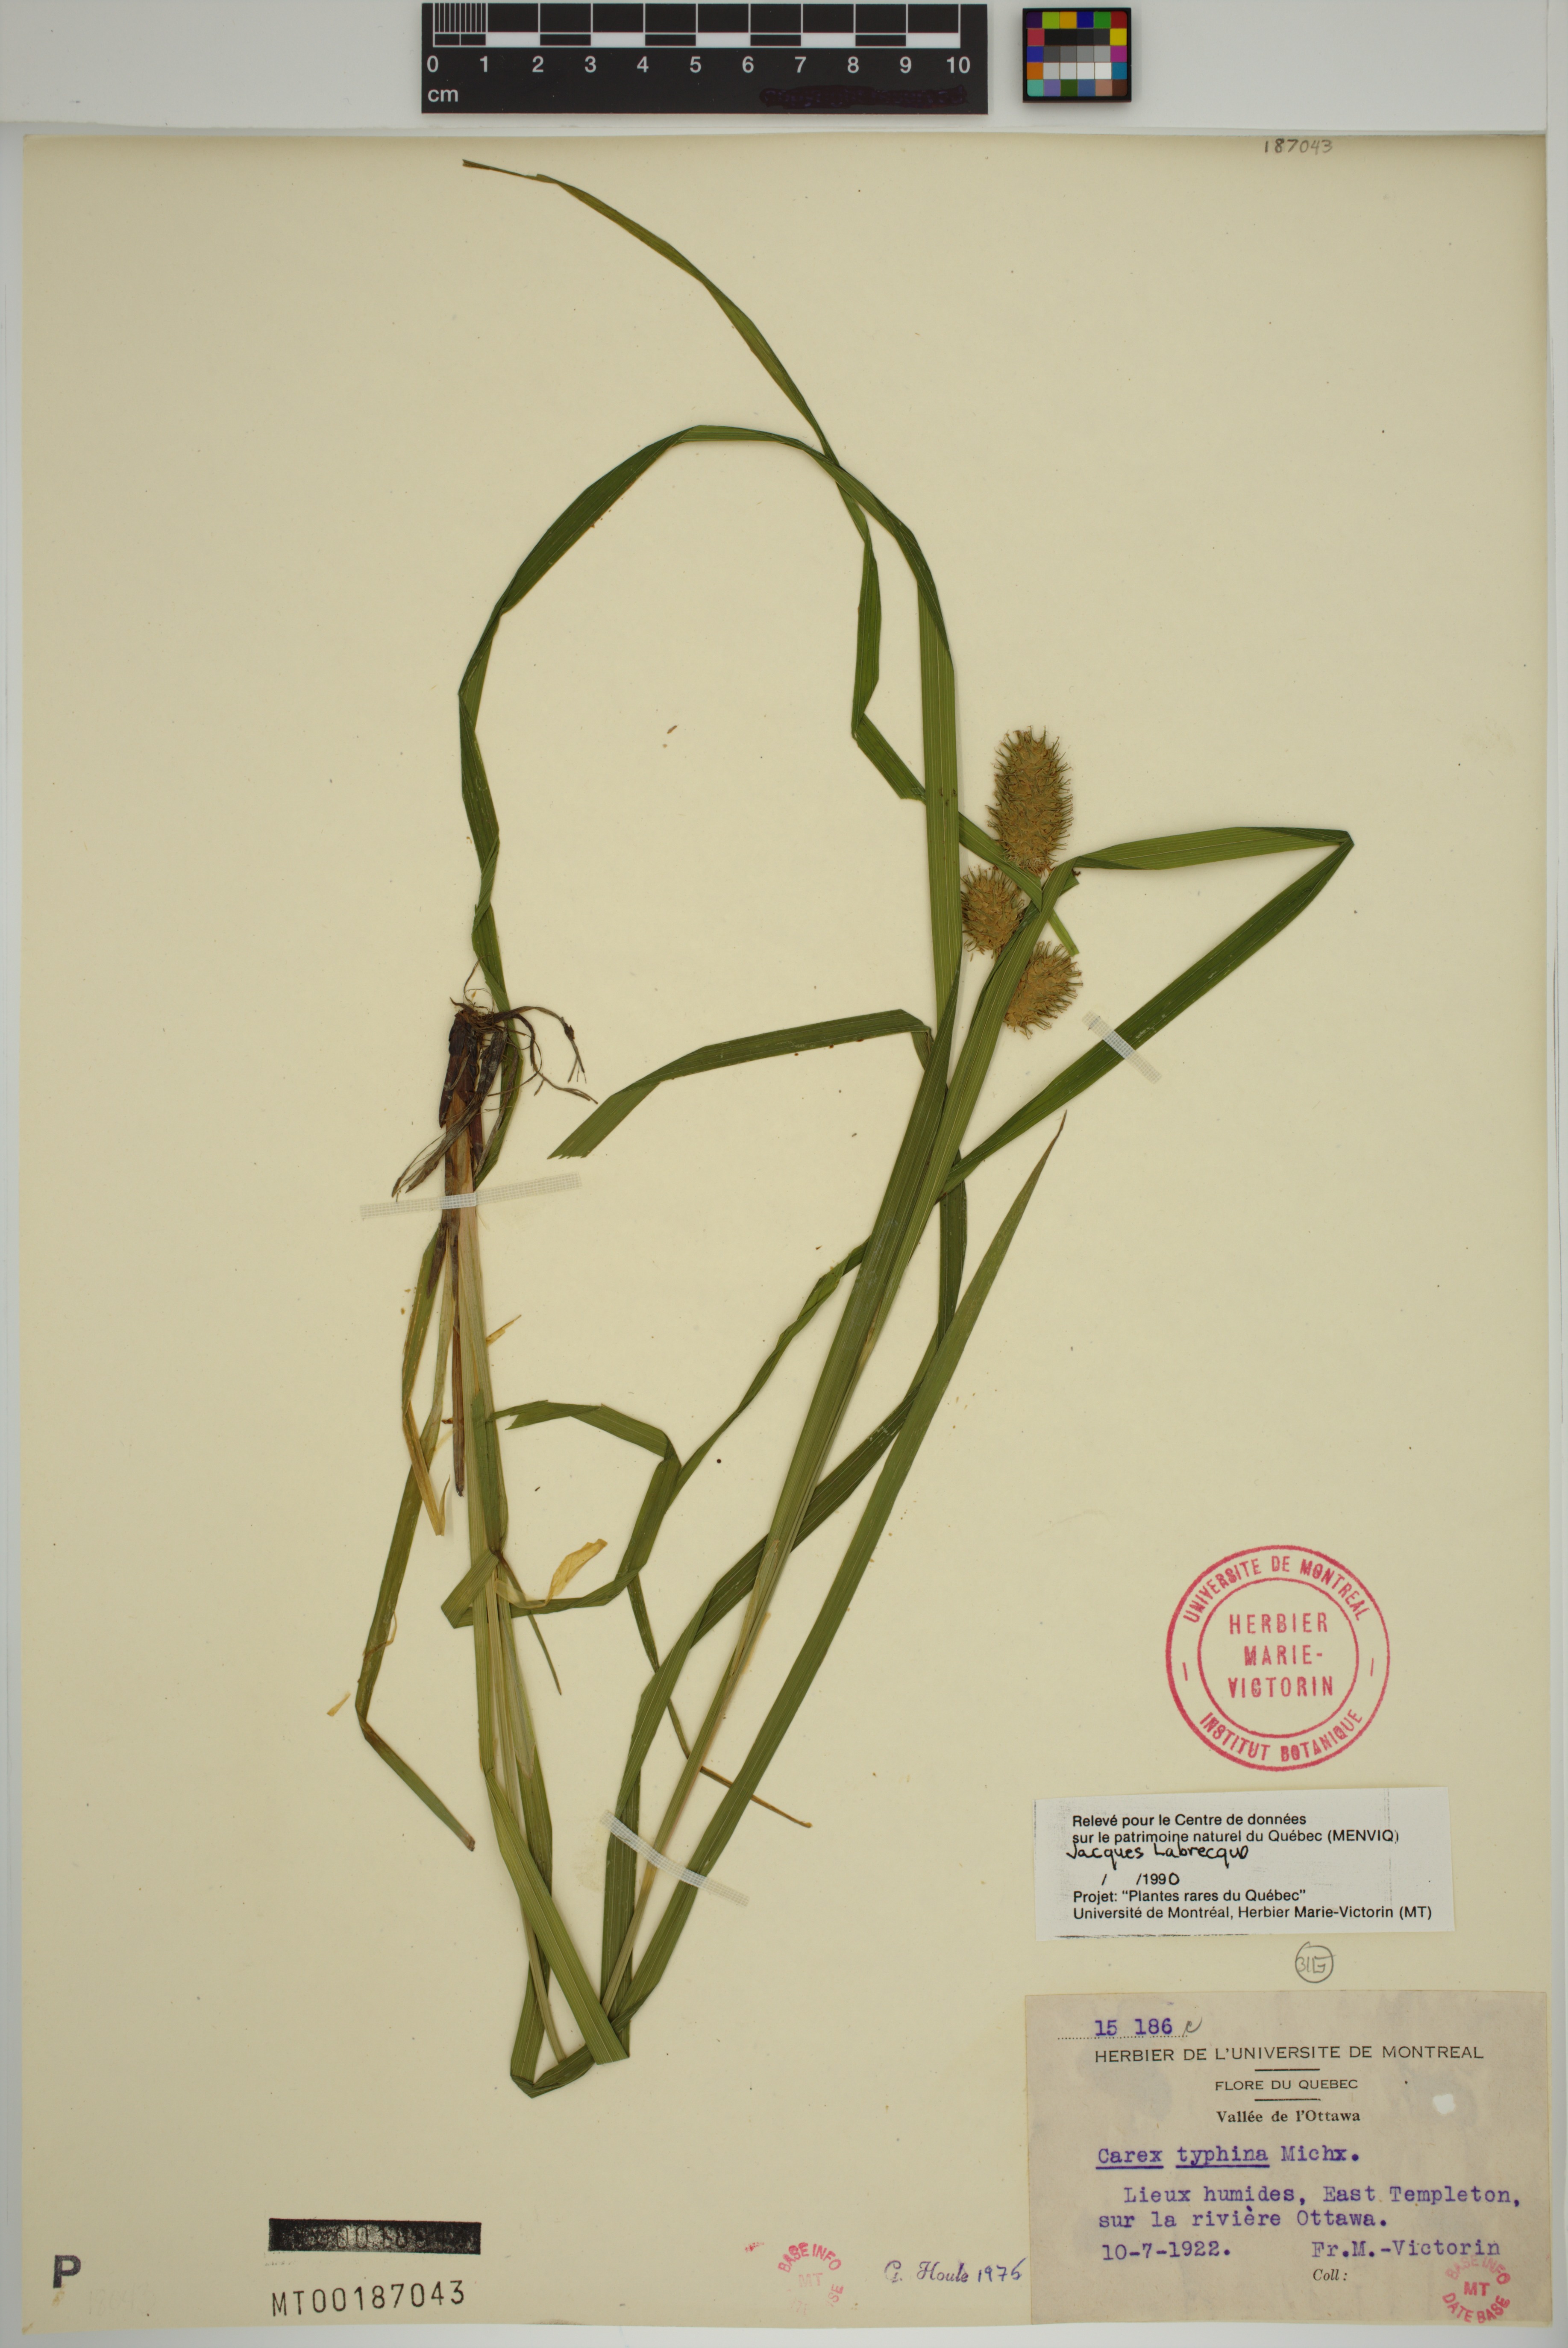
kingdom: Plantae
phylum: Tracheophyta
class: Liliopsida
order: Poales
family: Cyperaceae
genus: Carex
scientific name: Carex typhina
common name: Cattail sedge
